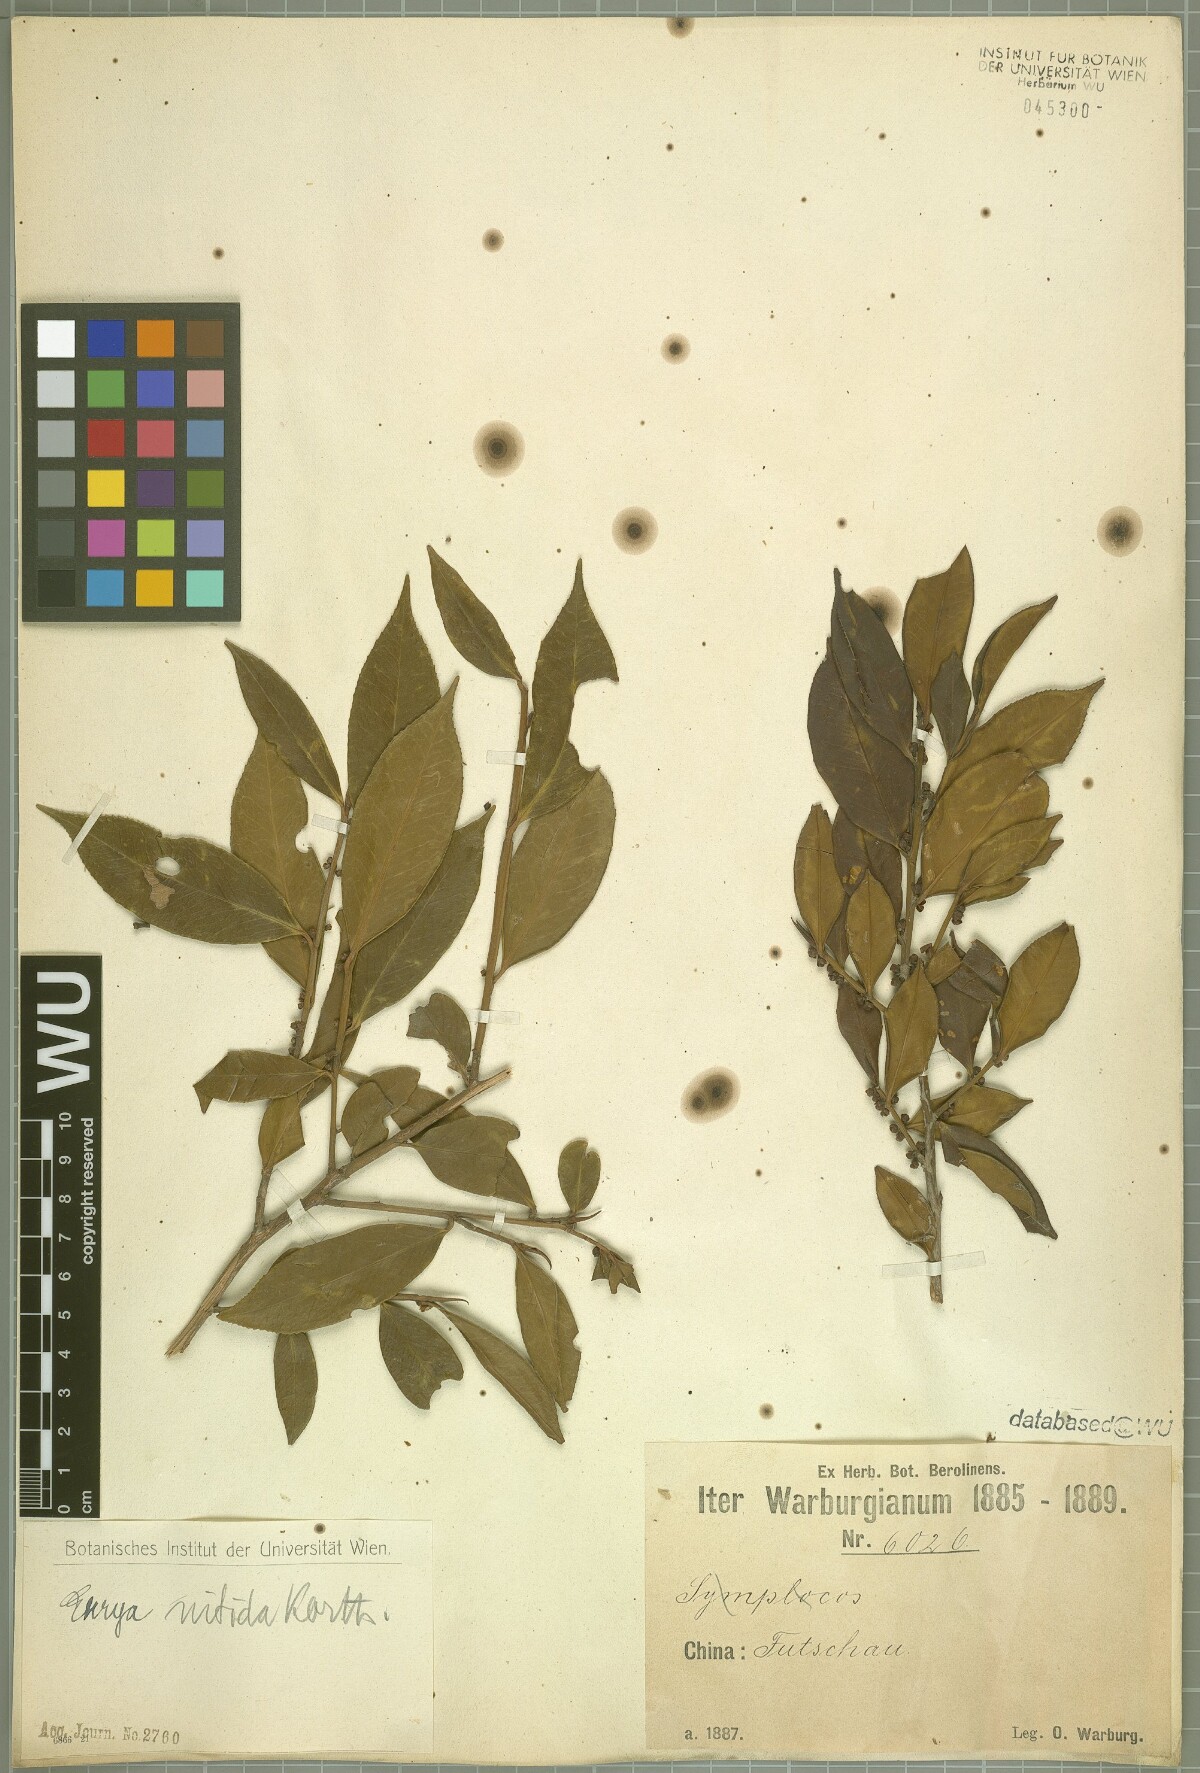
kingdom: Plantae
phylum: Tracheophyta
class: Magnoliopsida
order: Ericales
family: Pentaphylacaceae
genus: Eurya
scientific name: Eurya nitida
